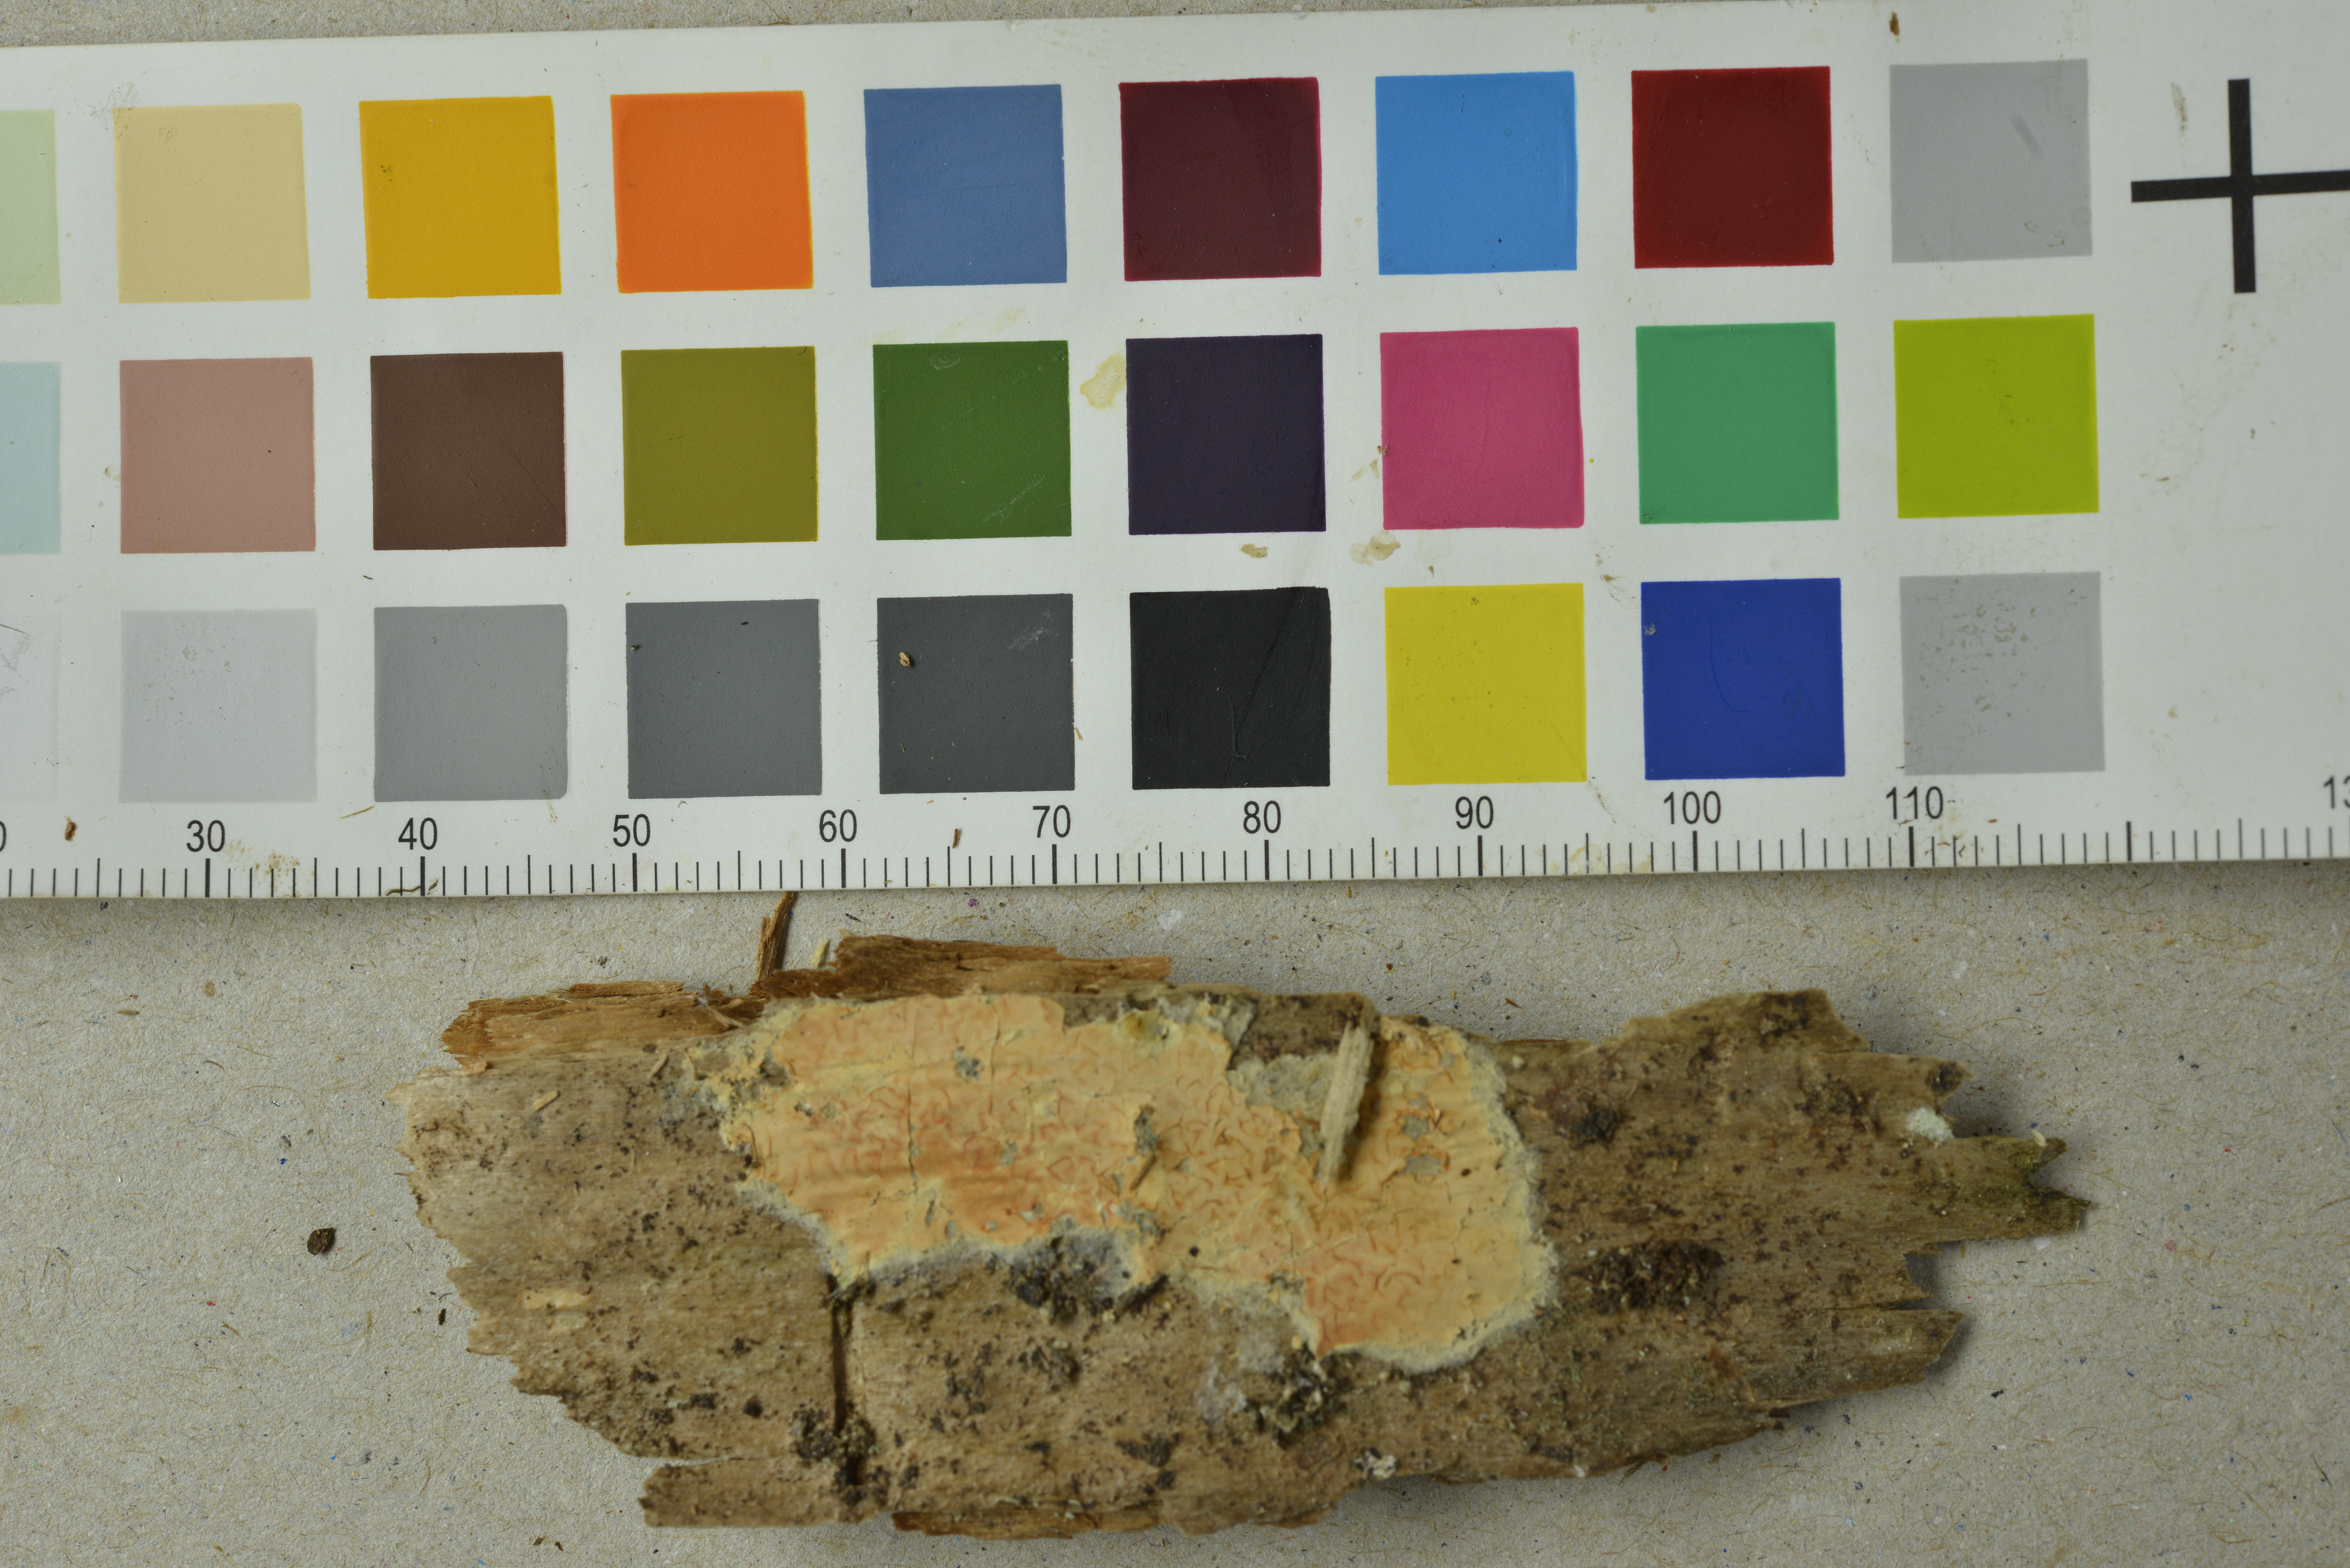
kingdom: Fungi
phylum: Basidiomycota
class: Agaricomycetes
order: Boletales
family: Coniophoraceae
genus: Penttilamyces
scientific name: Penttilamyces romellii
